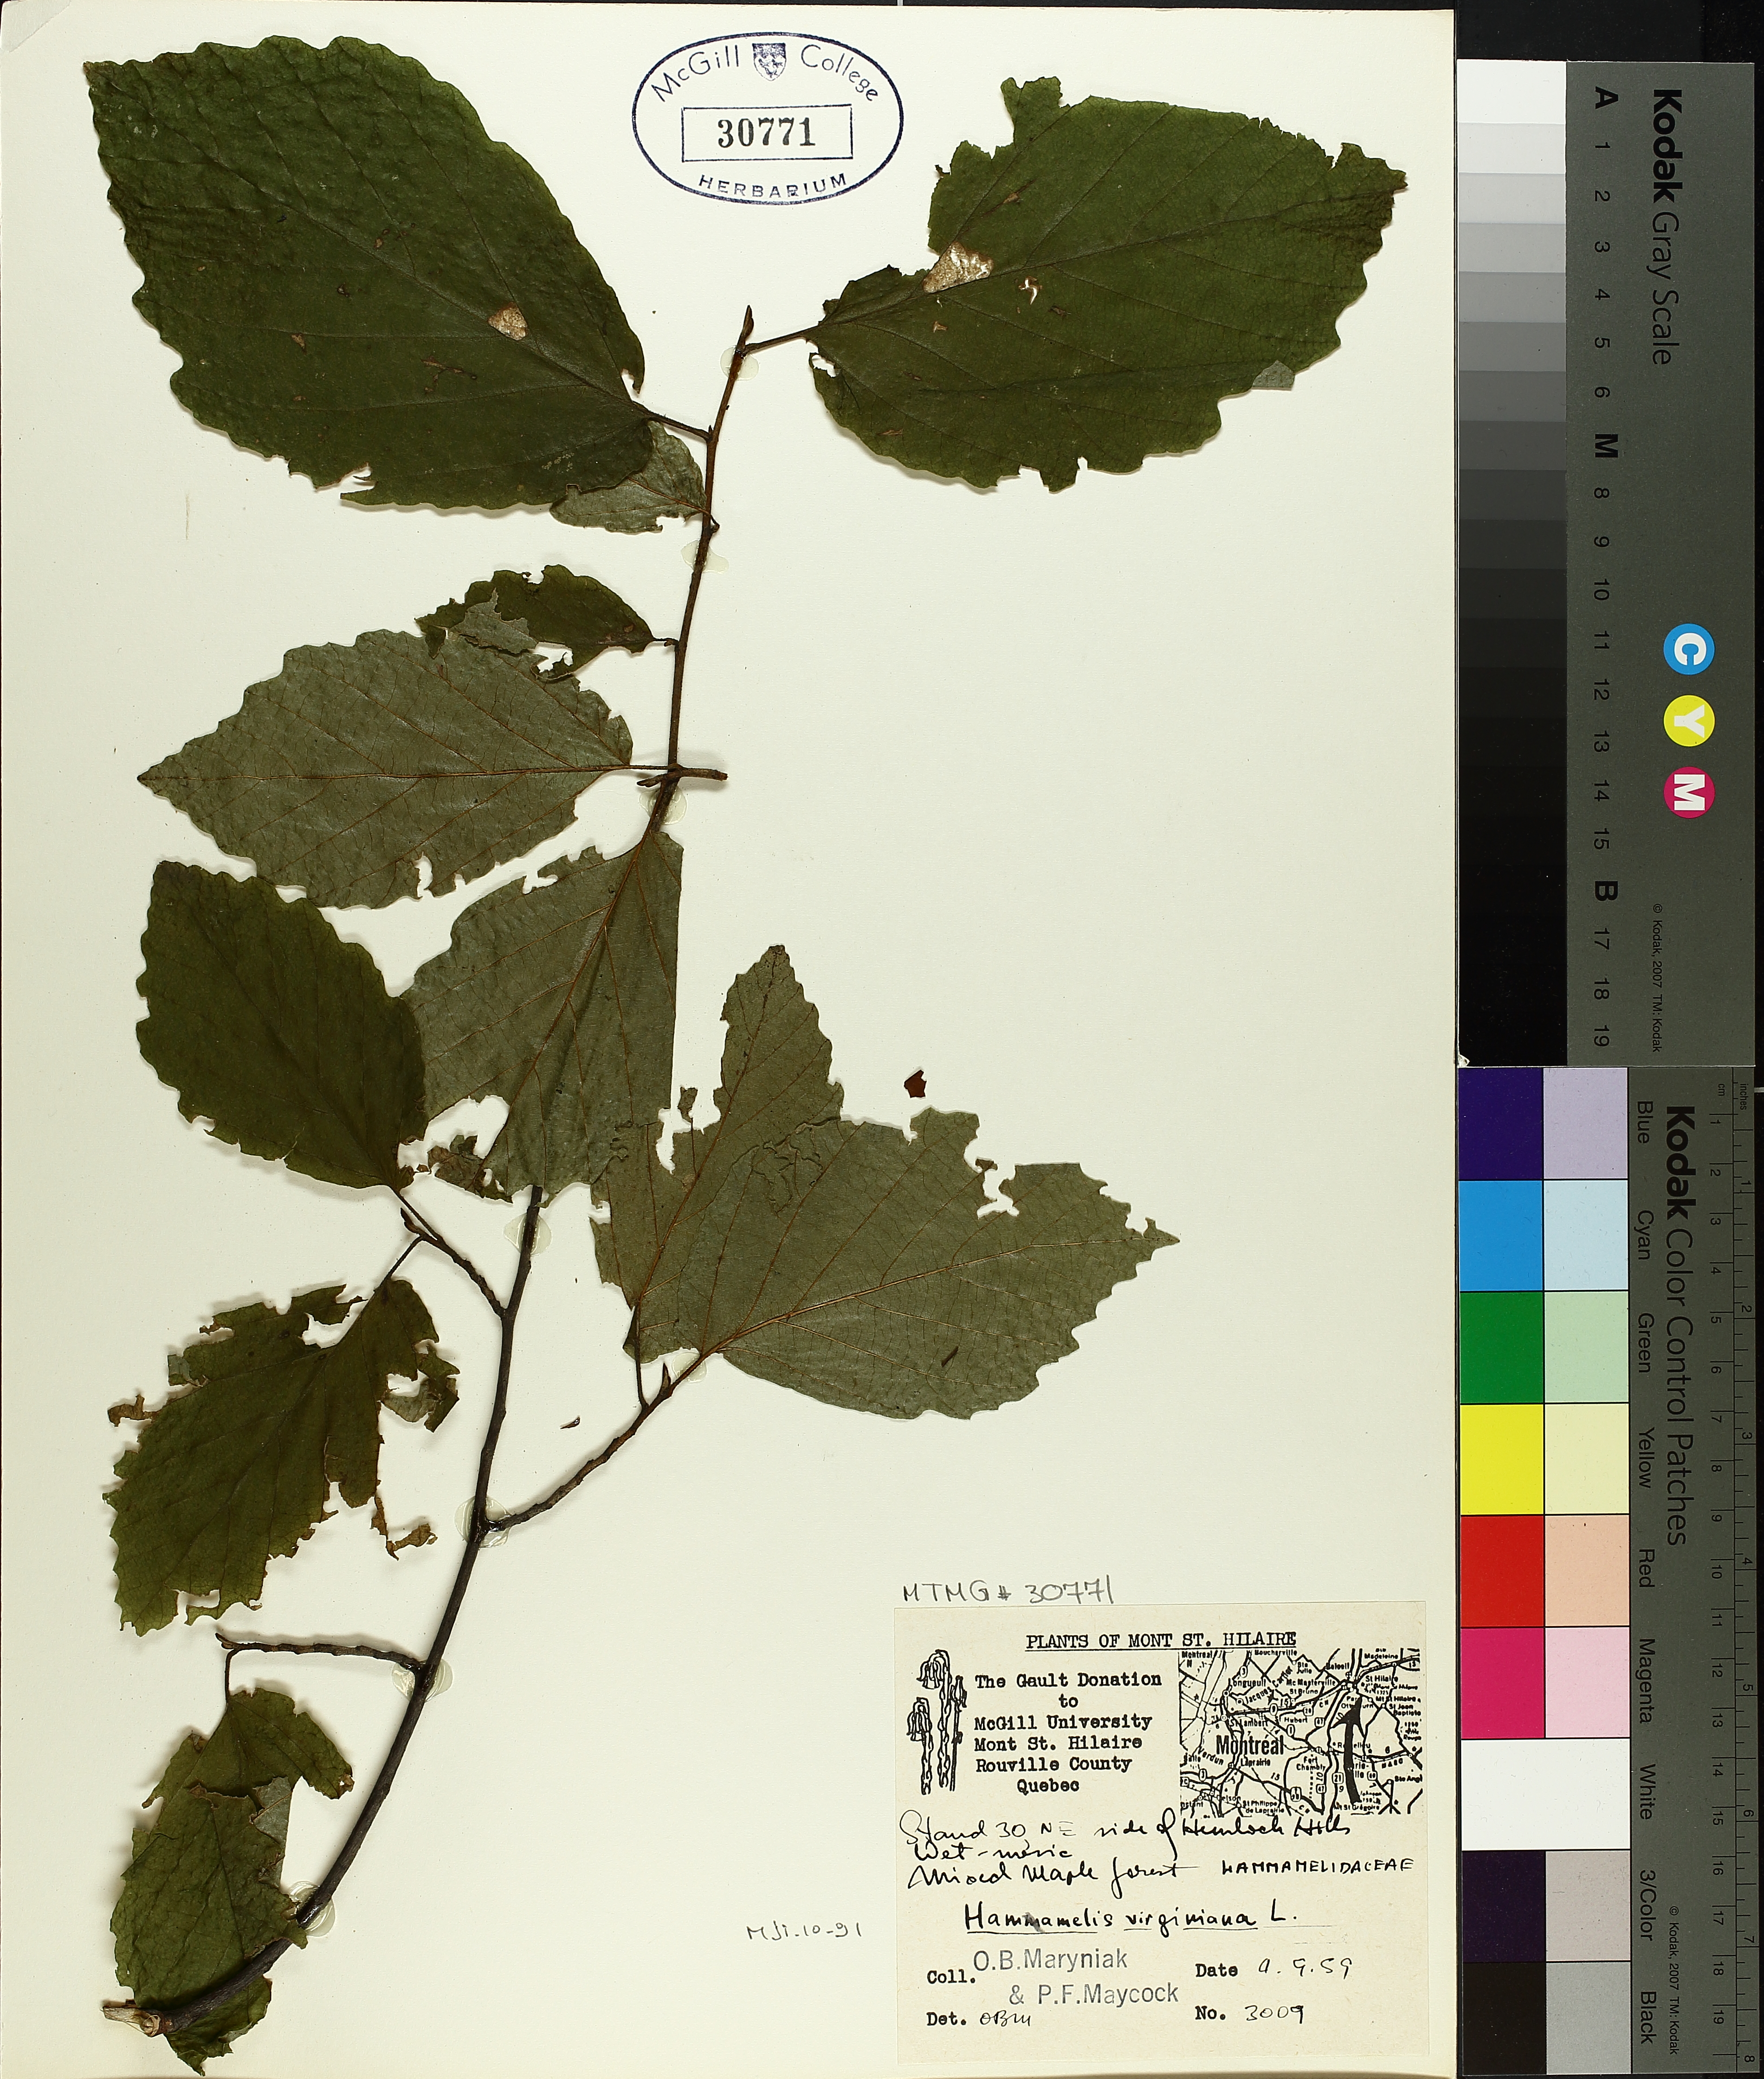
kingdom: Plantae
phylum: Tracheophyta
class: Magnoliopsida
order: Saxifragales
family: Hamamelidaceae
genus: Hamamelis
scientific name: Hamamelis virginiana
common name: Witch-hazel
